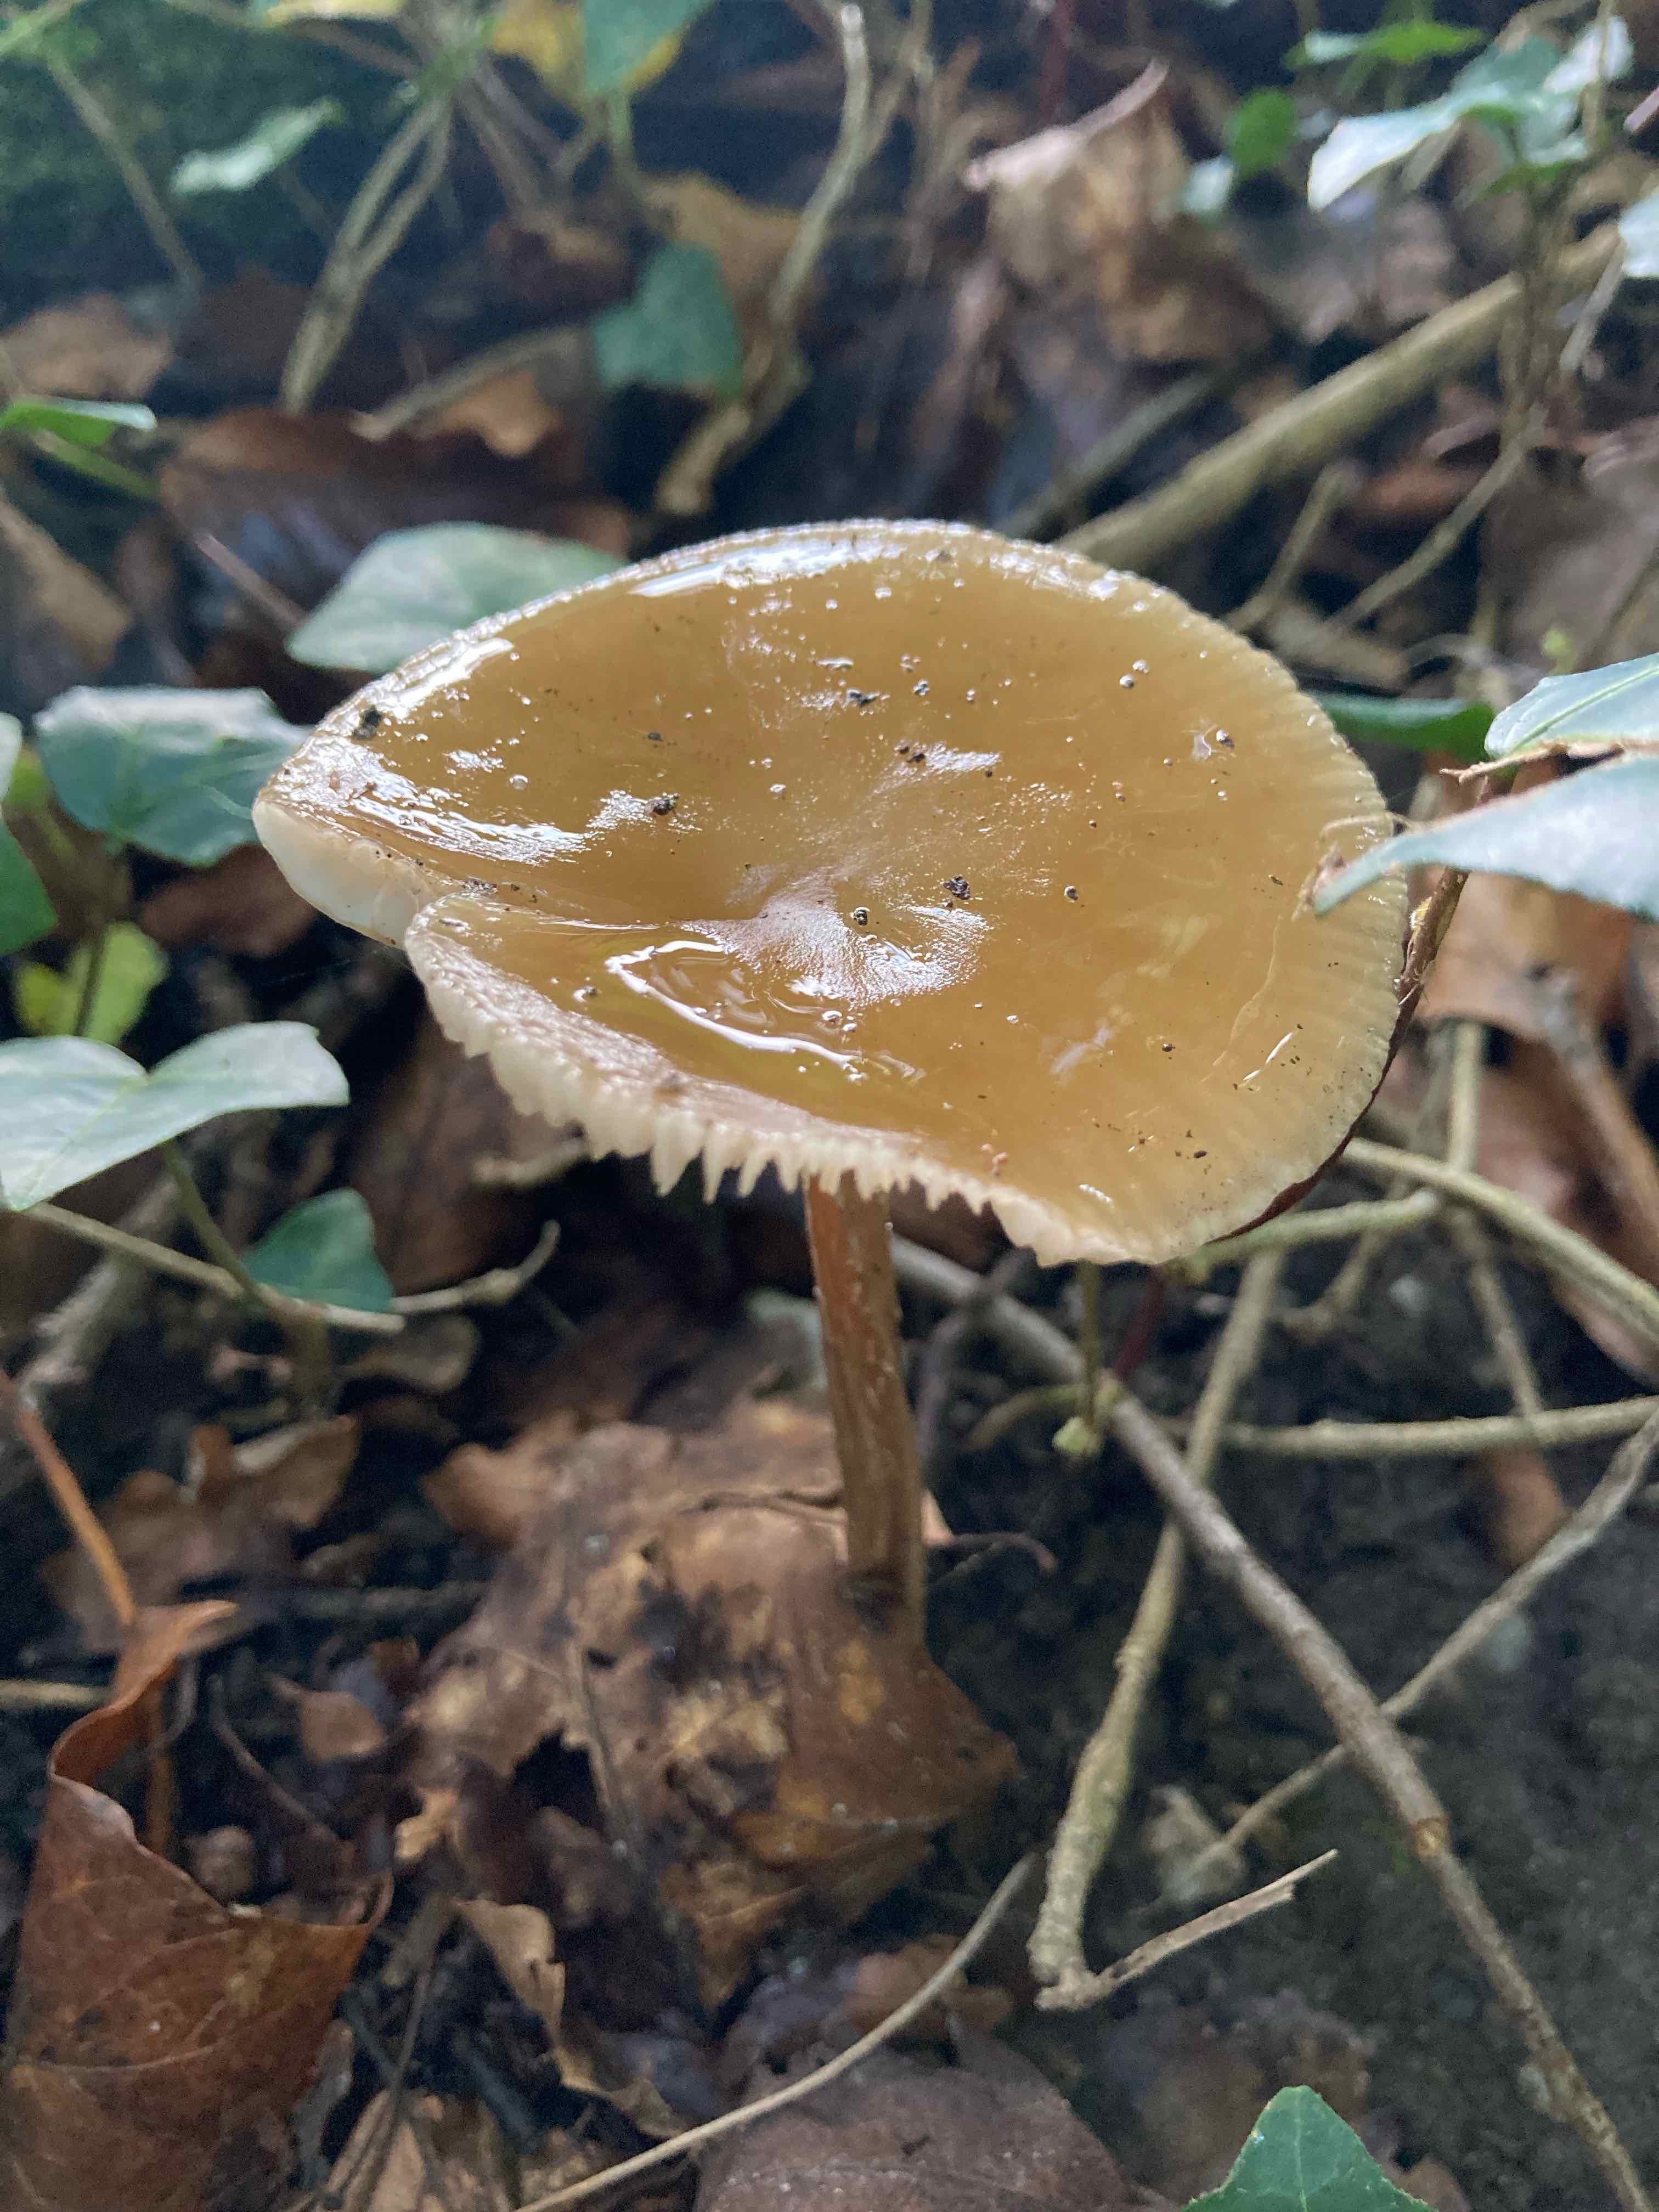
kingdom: Fungi
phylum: Basidiomycota
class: Agaricomycetes
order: Agaricales
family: Physalacriaceae
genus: Hymenopellis
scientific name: Hymenopellis radicata
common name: almindelig pælerodshat
